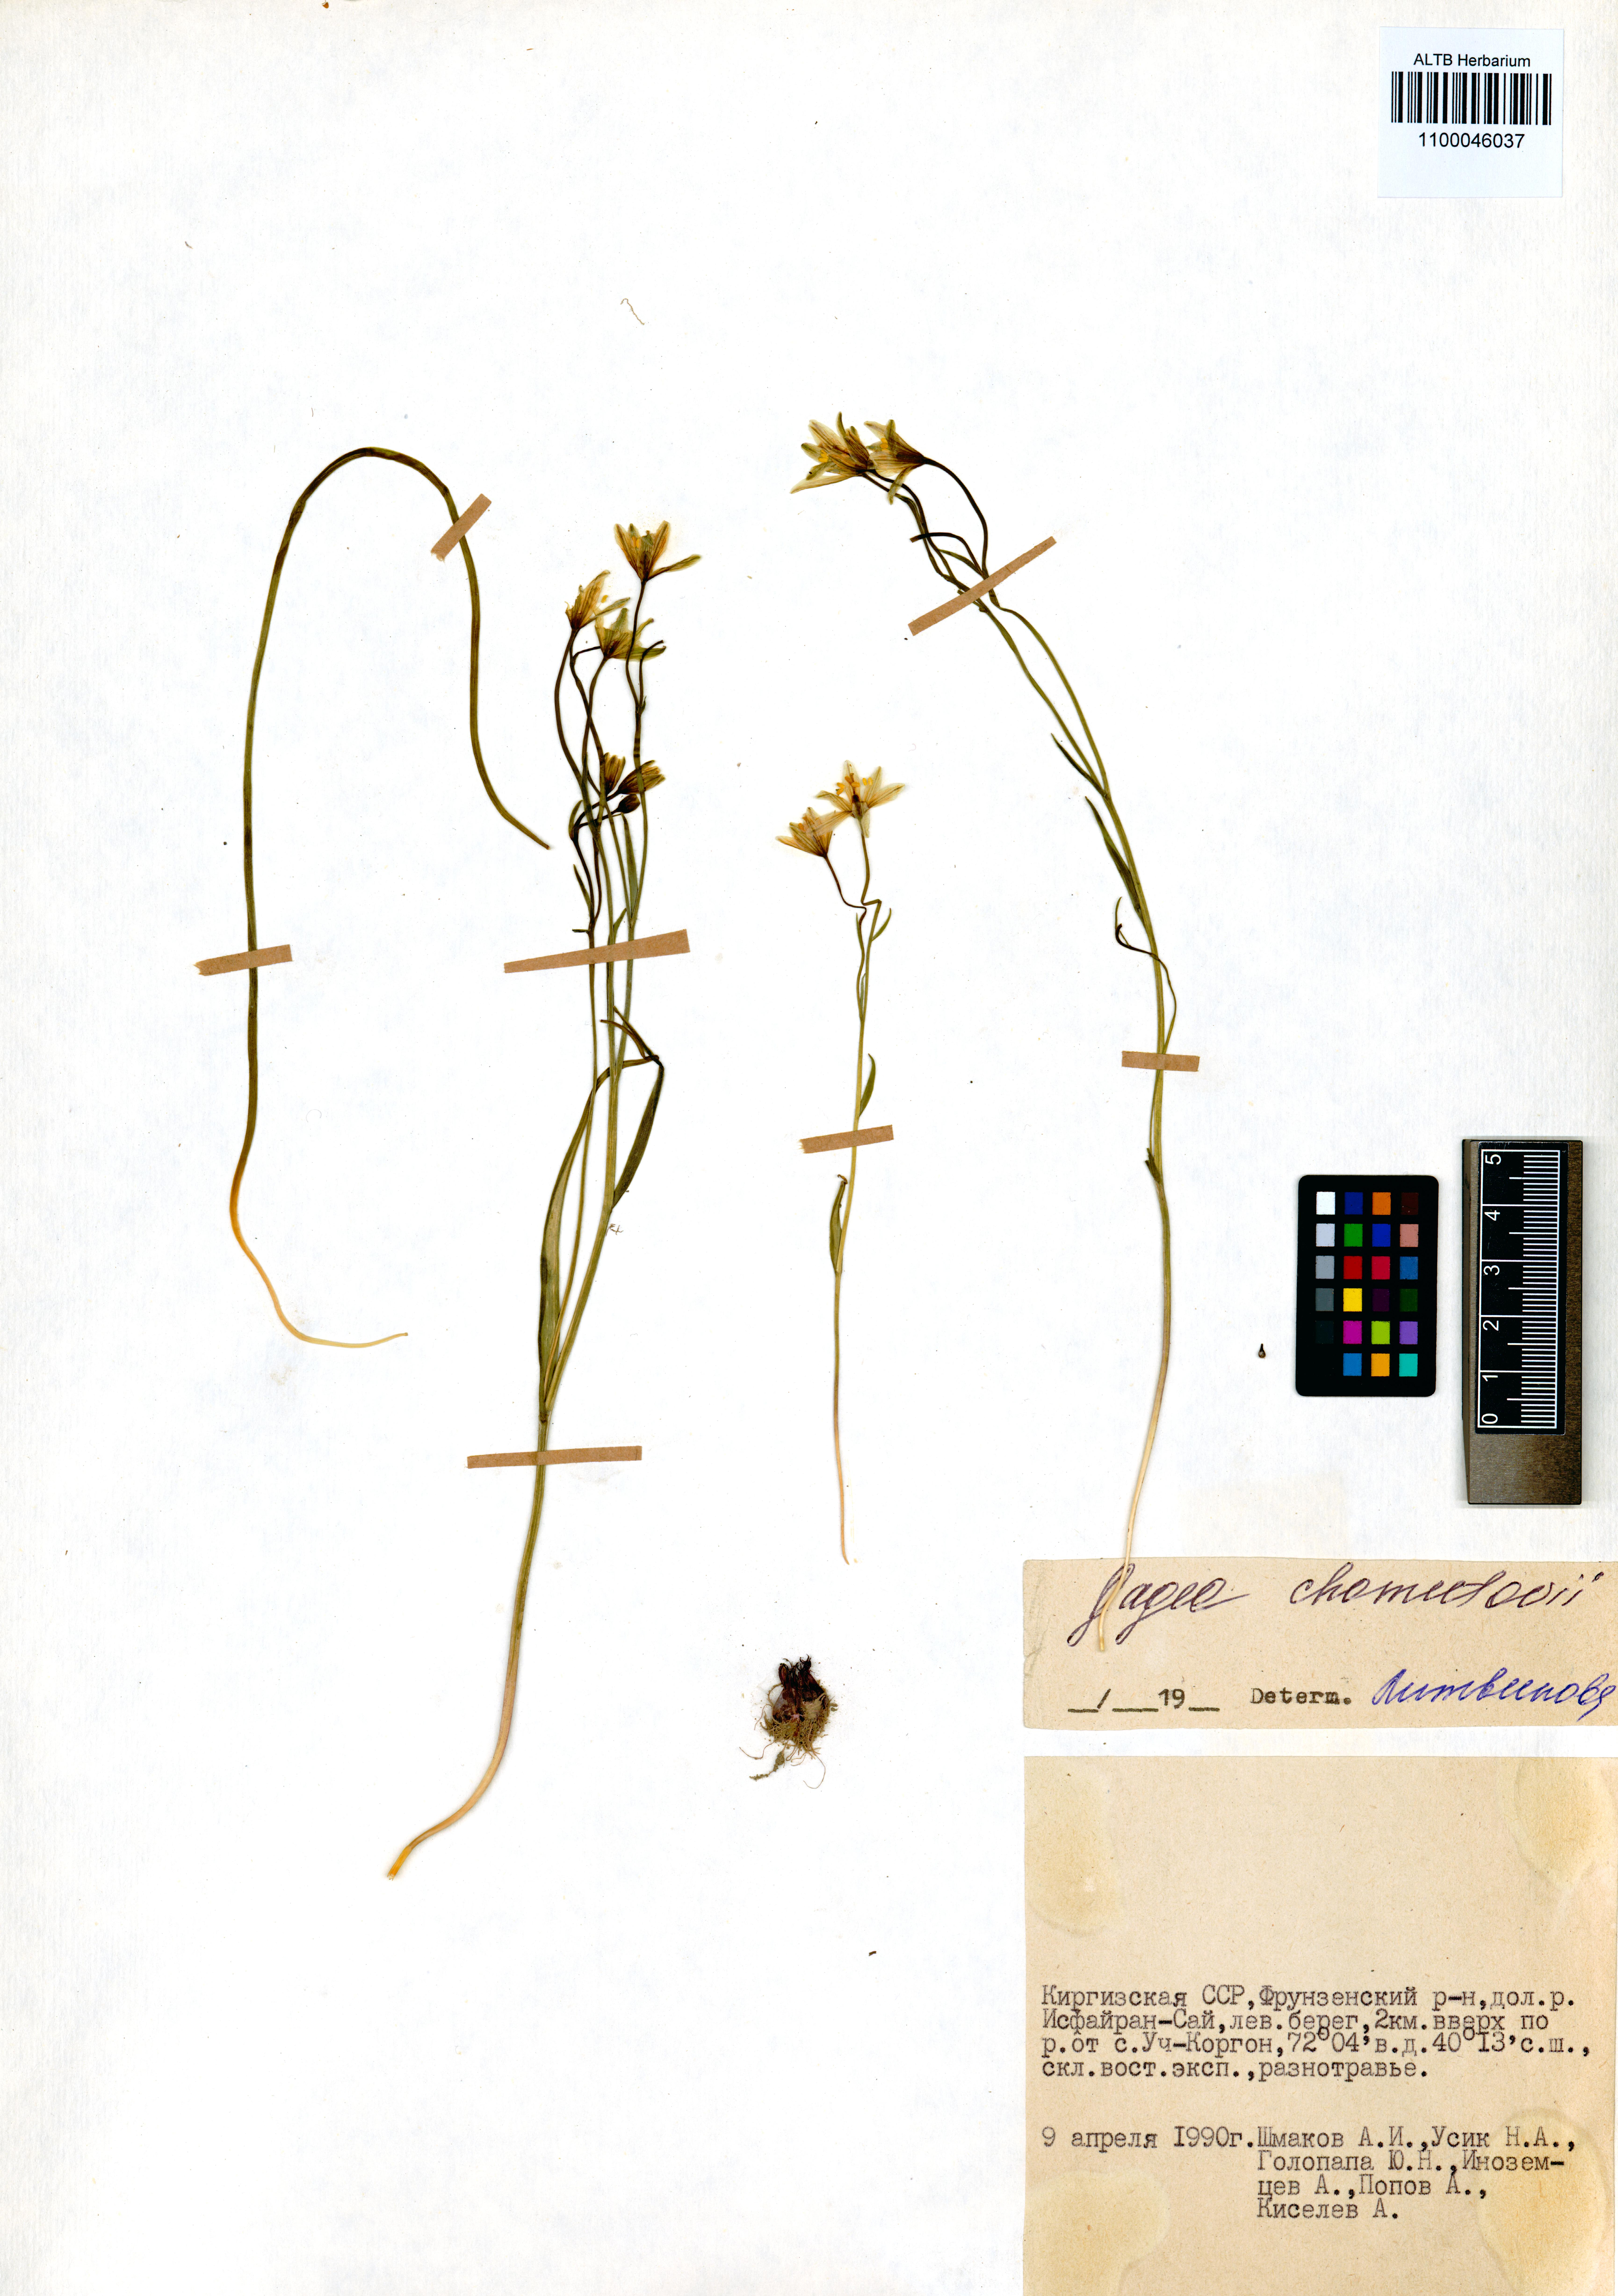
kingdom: Plantae
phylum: Tracheophyta
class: Liliopsida
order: Liliales
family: Liliaceae
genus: Gagea
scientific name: Gagea chomutowae
